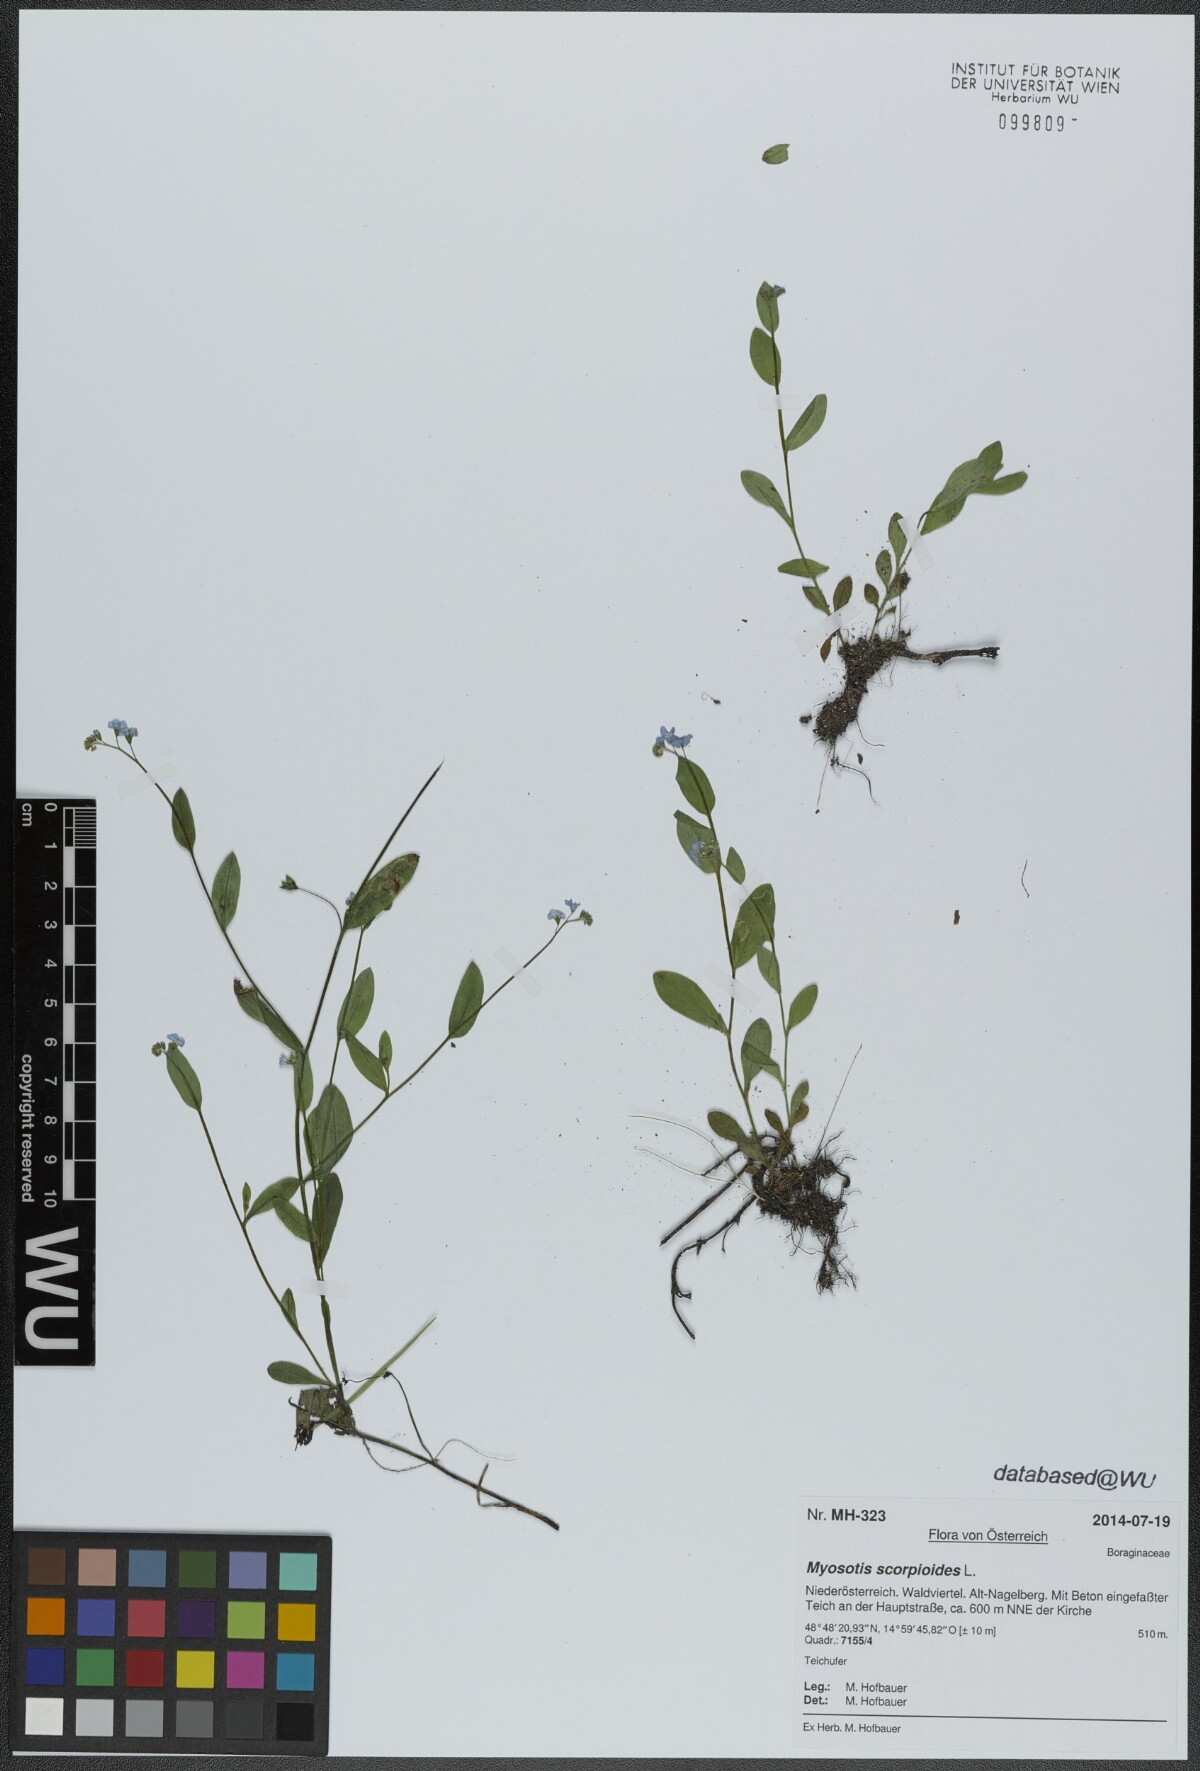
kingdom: Plantae
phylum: Tracheophyta
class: Magnoliopsida
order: Boraginales
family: Boraginaceae
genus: Myosotis
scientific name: Myosotis scorpioides
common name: Water forget-me-not
